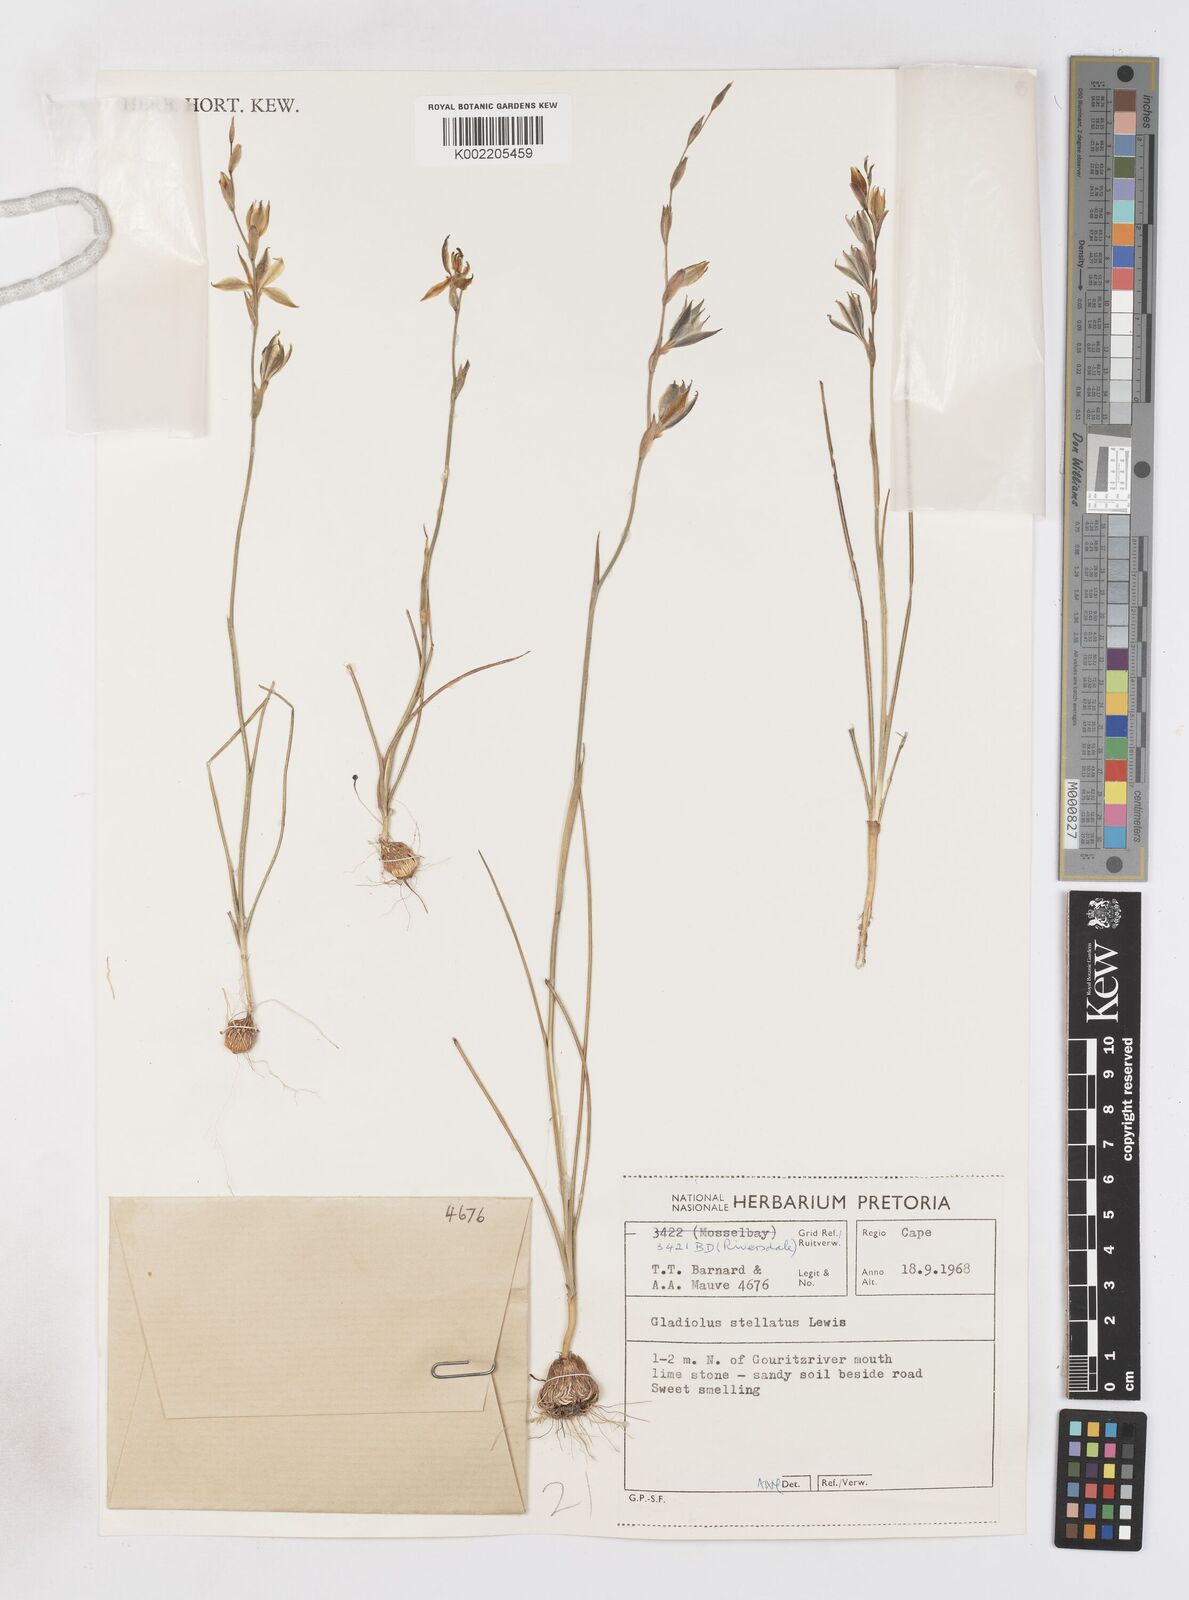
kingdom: Plantae
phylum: Tracheophyta
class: Liliopsida
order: Asparagales
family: Iridaceae
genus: Gladiolus
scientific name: Gladiolus stellatus
